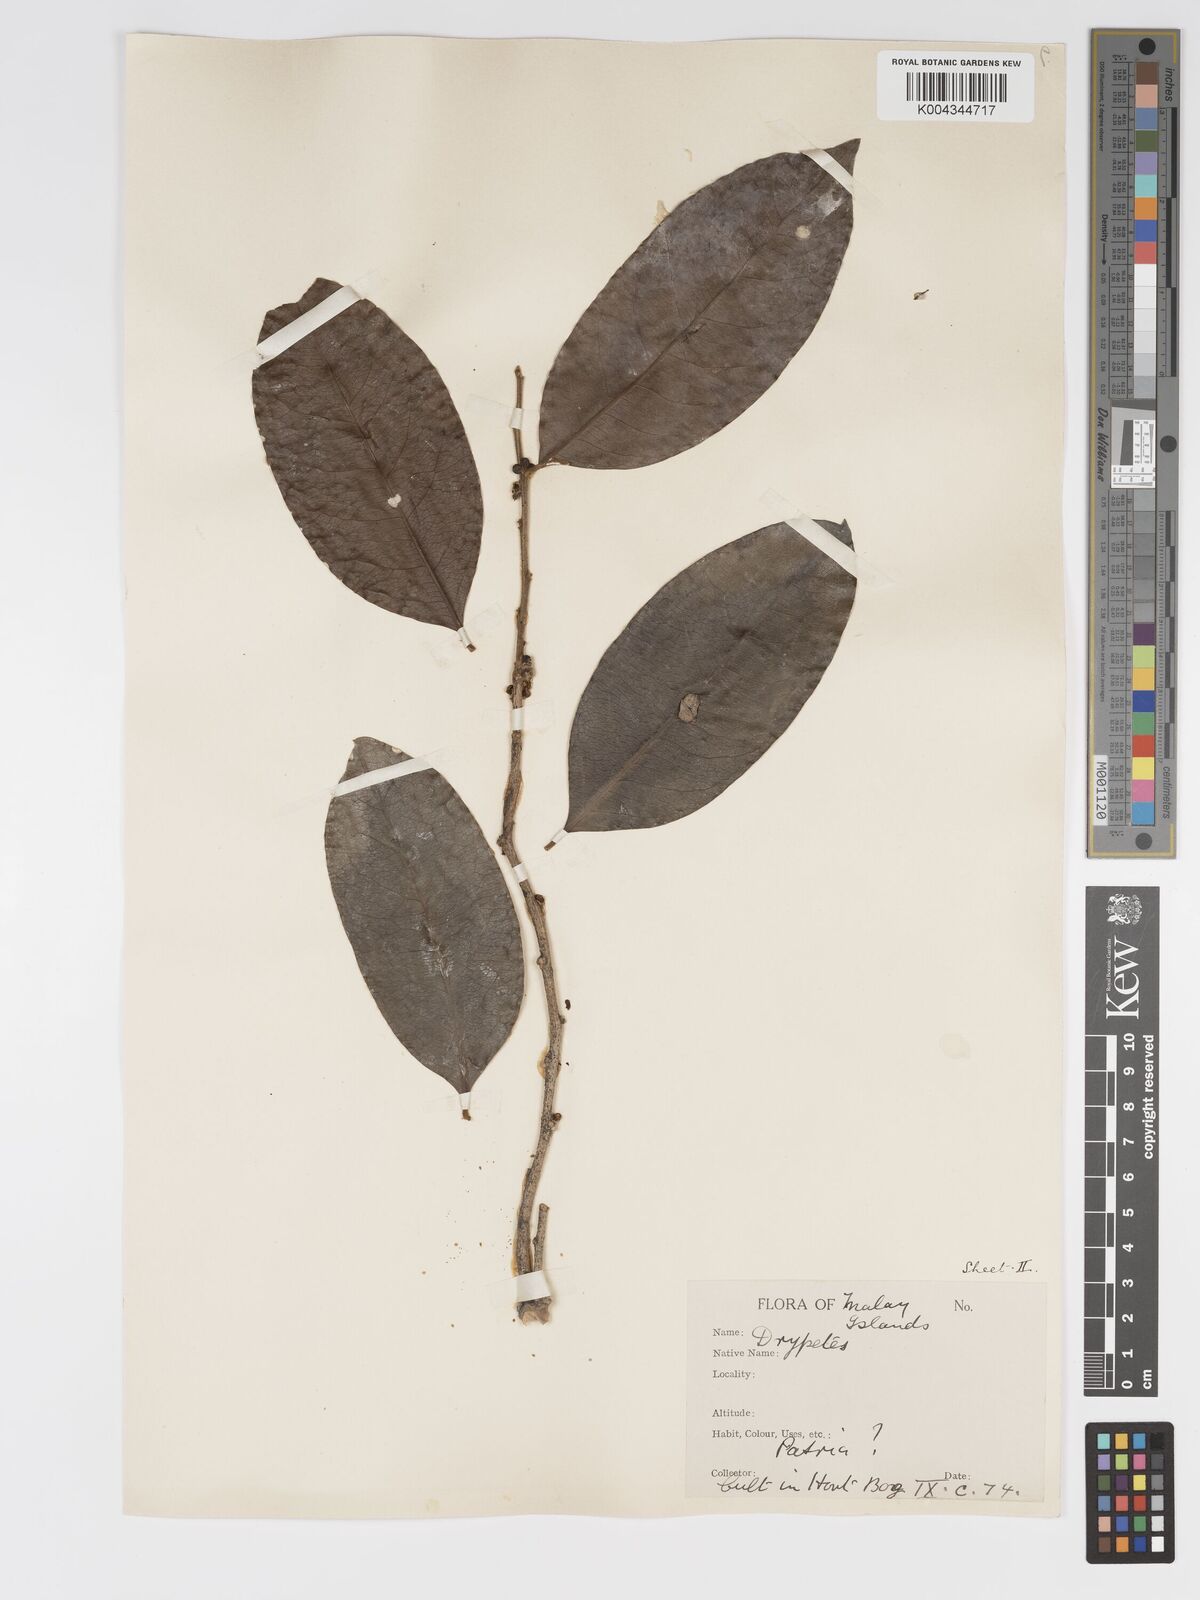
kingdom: Plantae
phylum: Tracheophyta
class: Magnoliopsida
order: Malpighiales
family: Putranjivaceae
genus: Drypetes
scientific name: Drypetes subcubica
